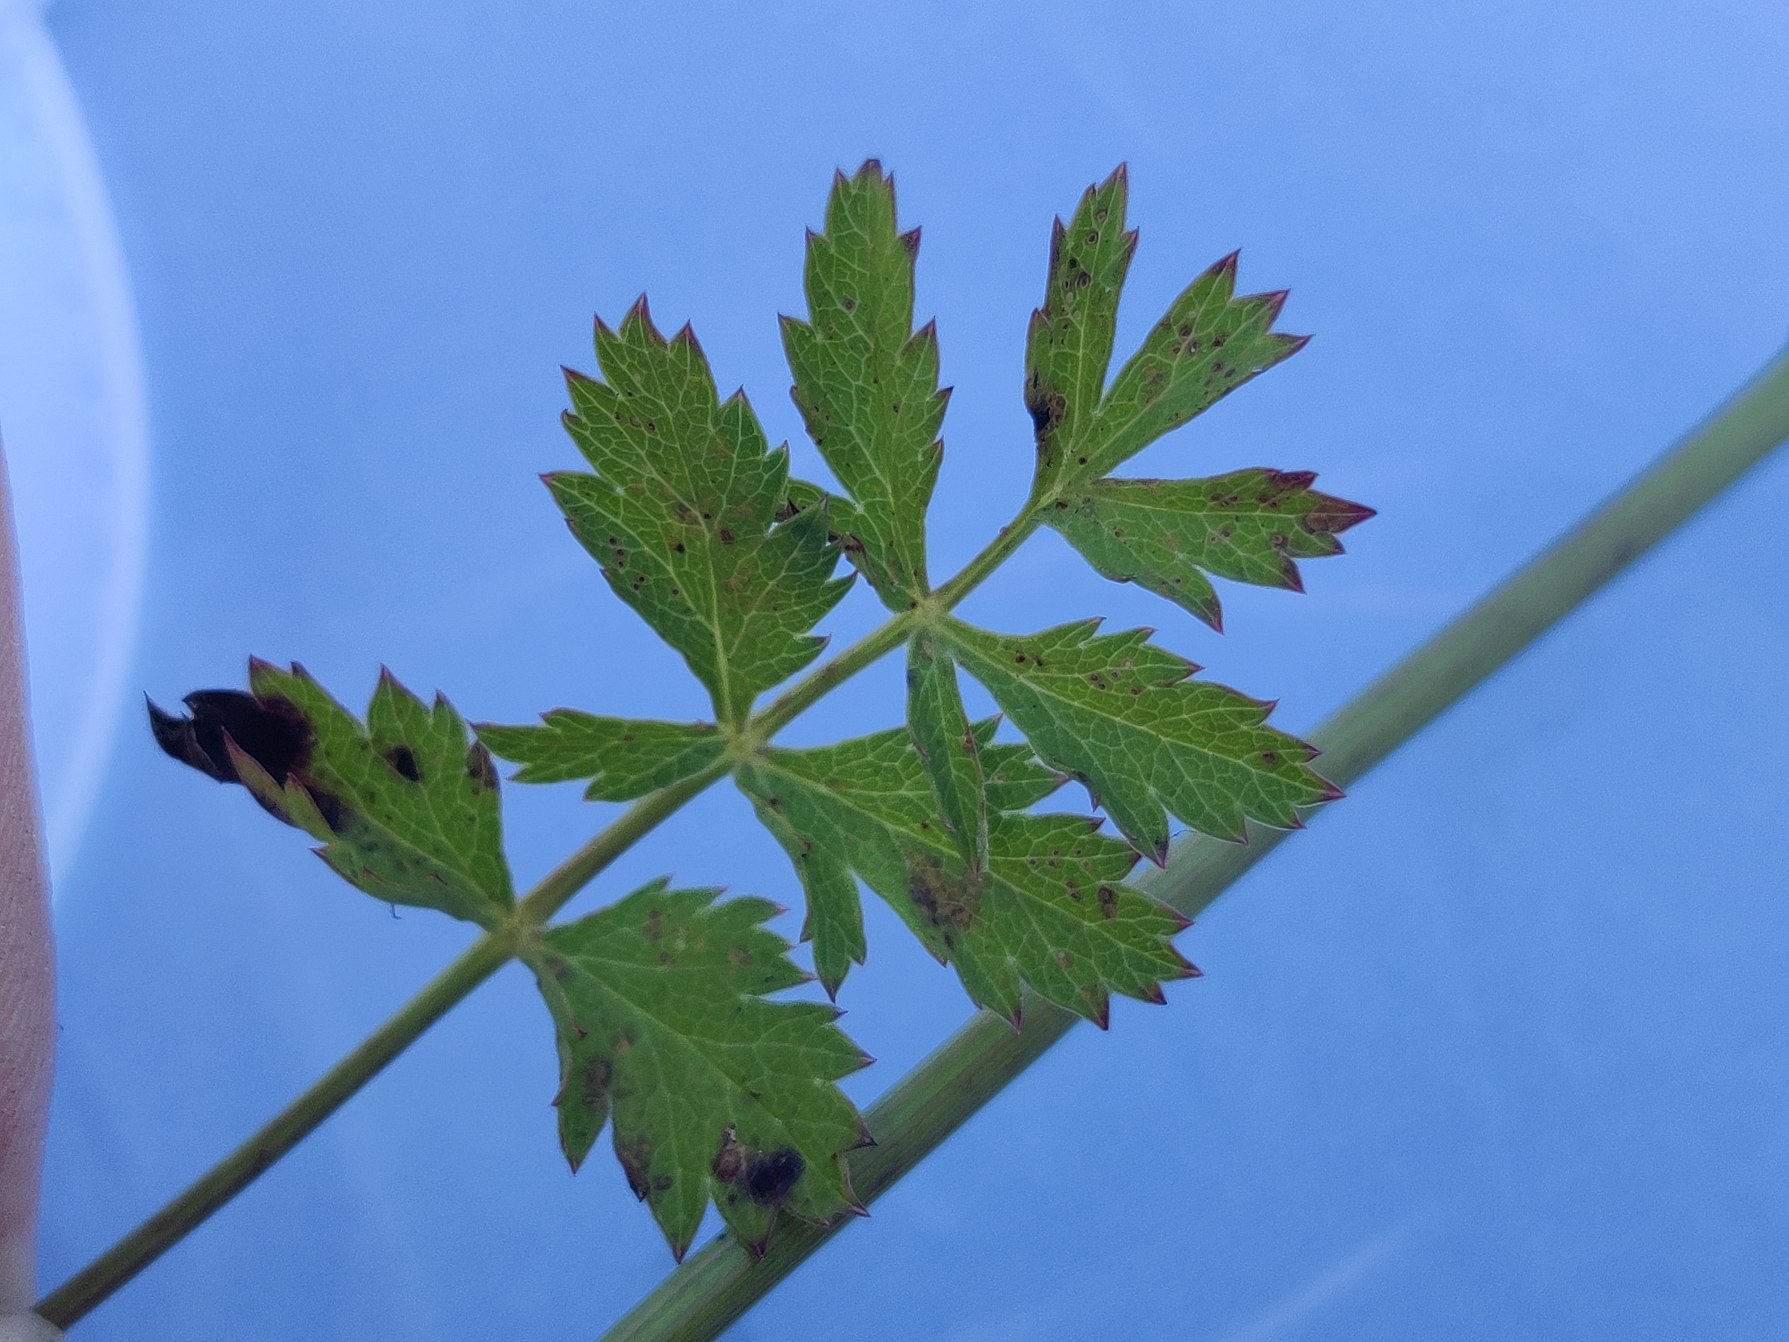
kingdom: Plantae
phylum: Tracheophyta
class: Magnoliopsida
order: Apiales
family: Apiaceae
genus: Pimpinella
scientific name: Pimpinella saxifraga
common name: Almindelig pimpinelle
